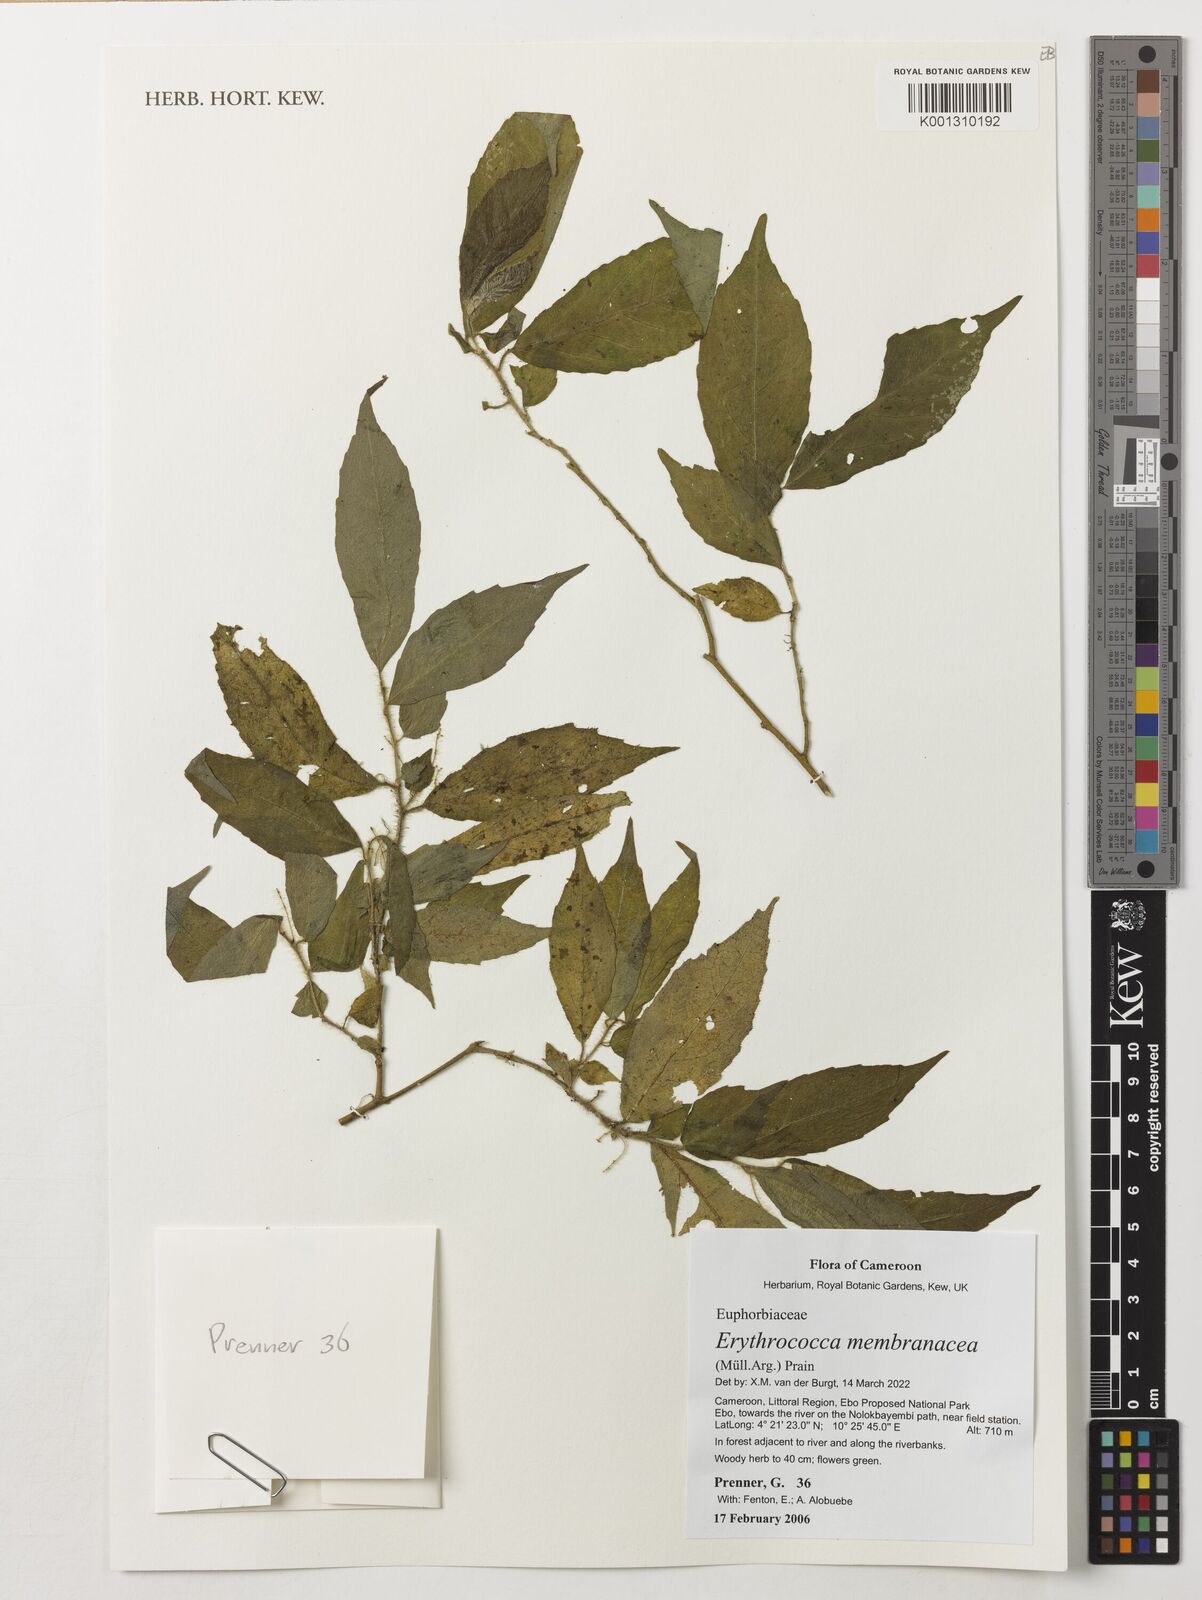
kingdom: Plantae
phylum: Tracheophyta
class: Magnoliopsida
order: Malpighiales
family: Euphorbiaceae
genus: Erythrococca
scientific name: Erythrococca membranacea
